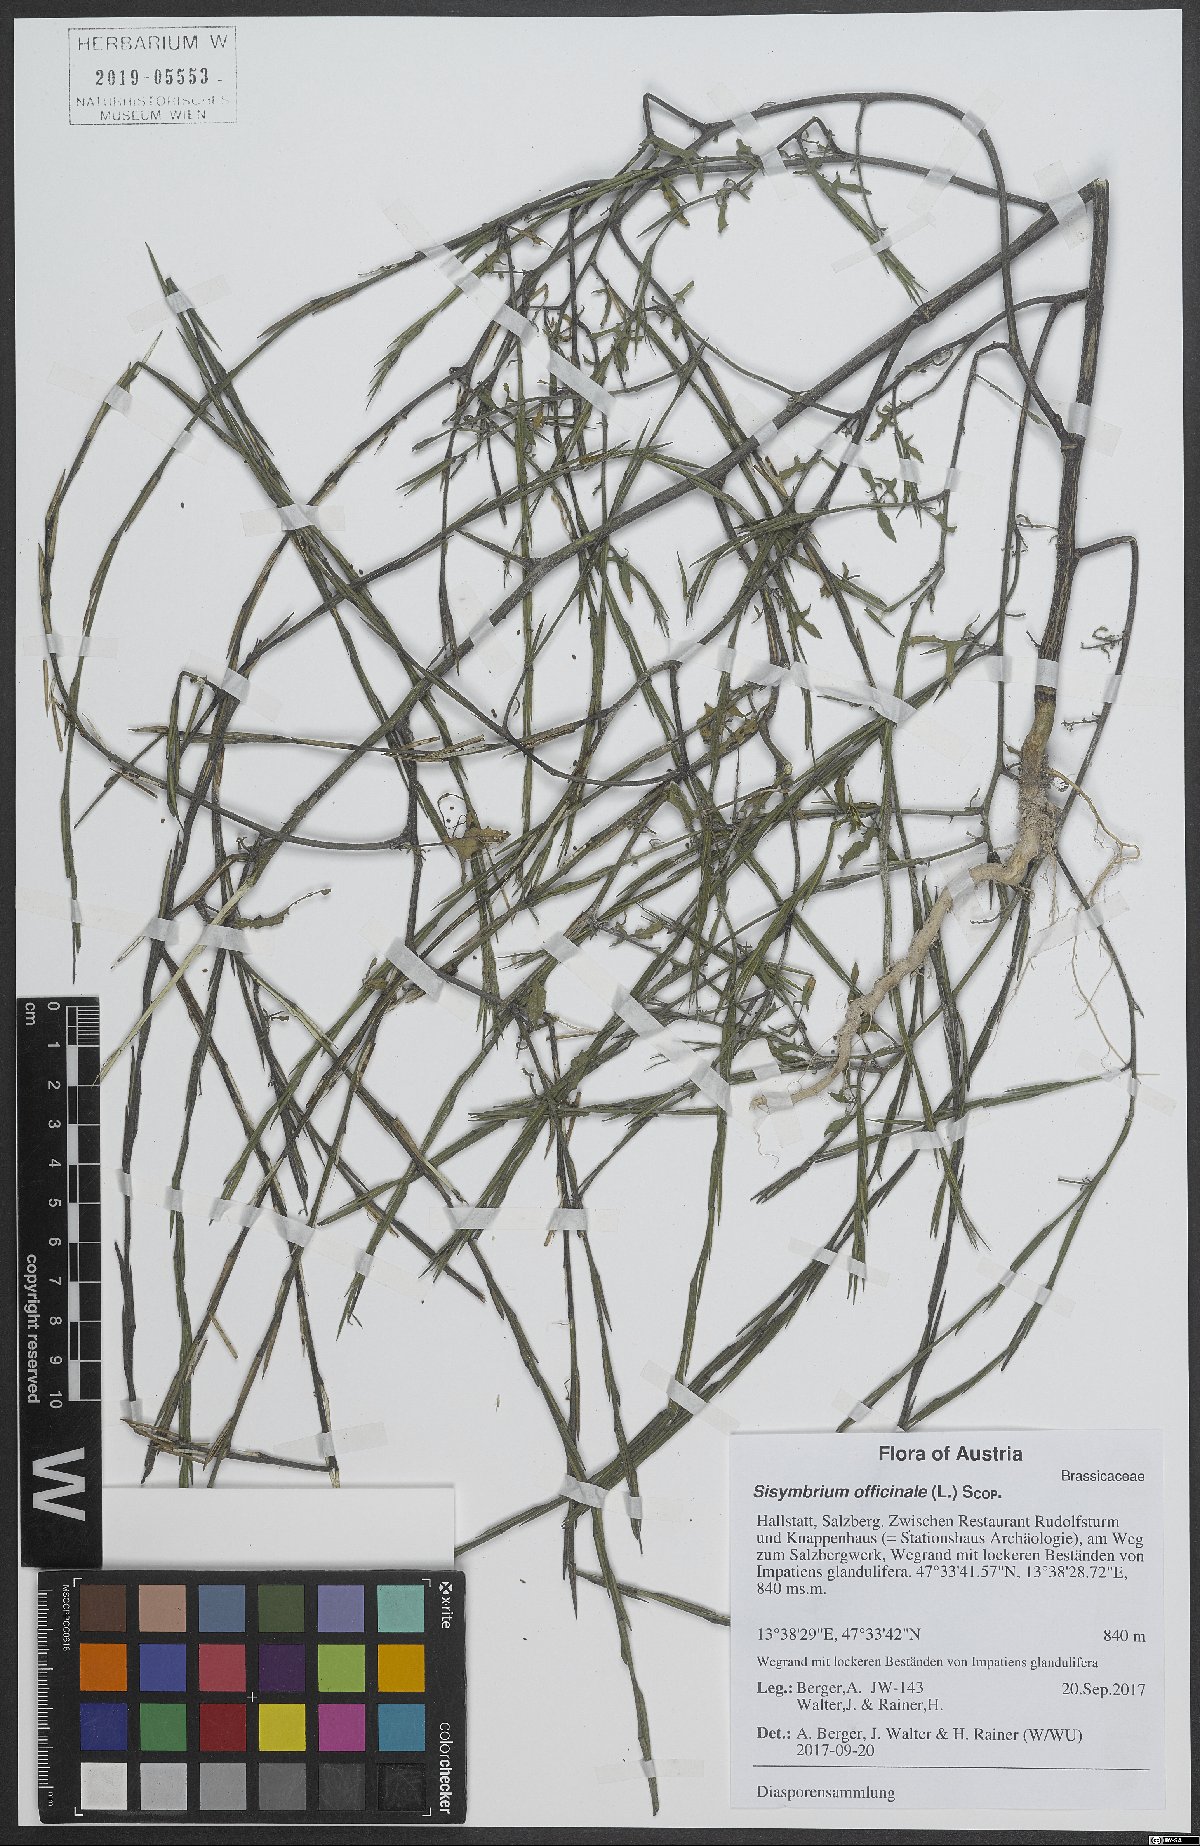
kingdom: Plantae
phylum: Tracheophyta
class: Magnoliopsida
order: Brassicales
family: Brassicaceae
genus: Sisymbrium
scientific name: Sisymbrium officinale
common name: Hedge mustard
